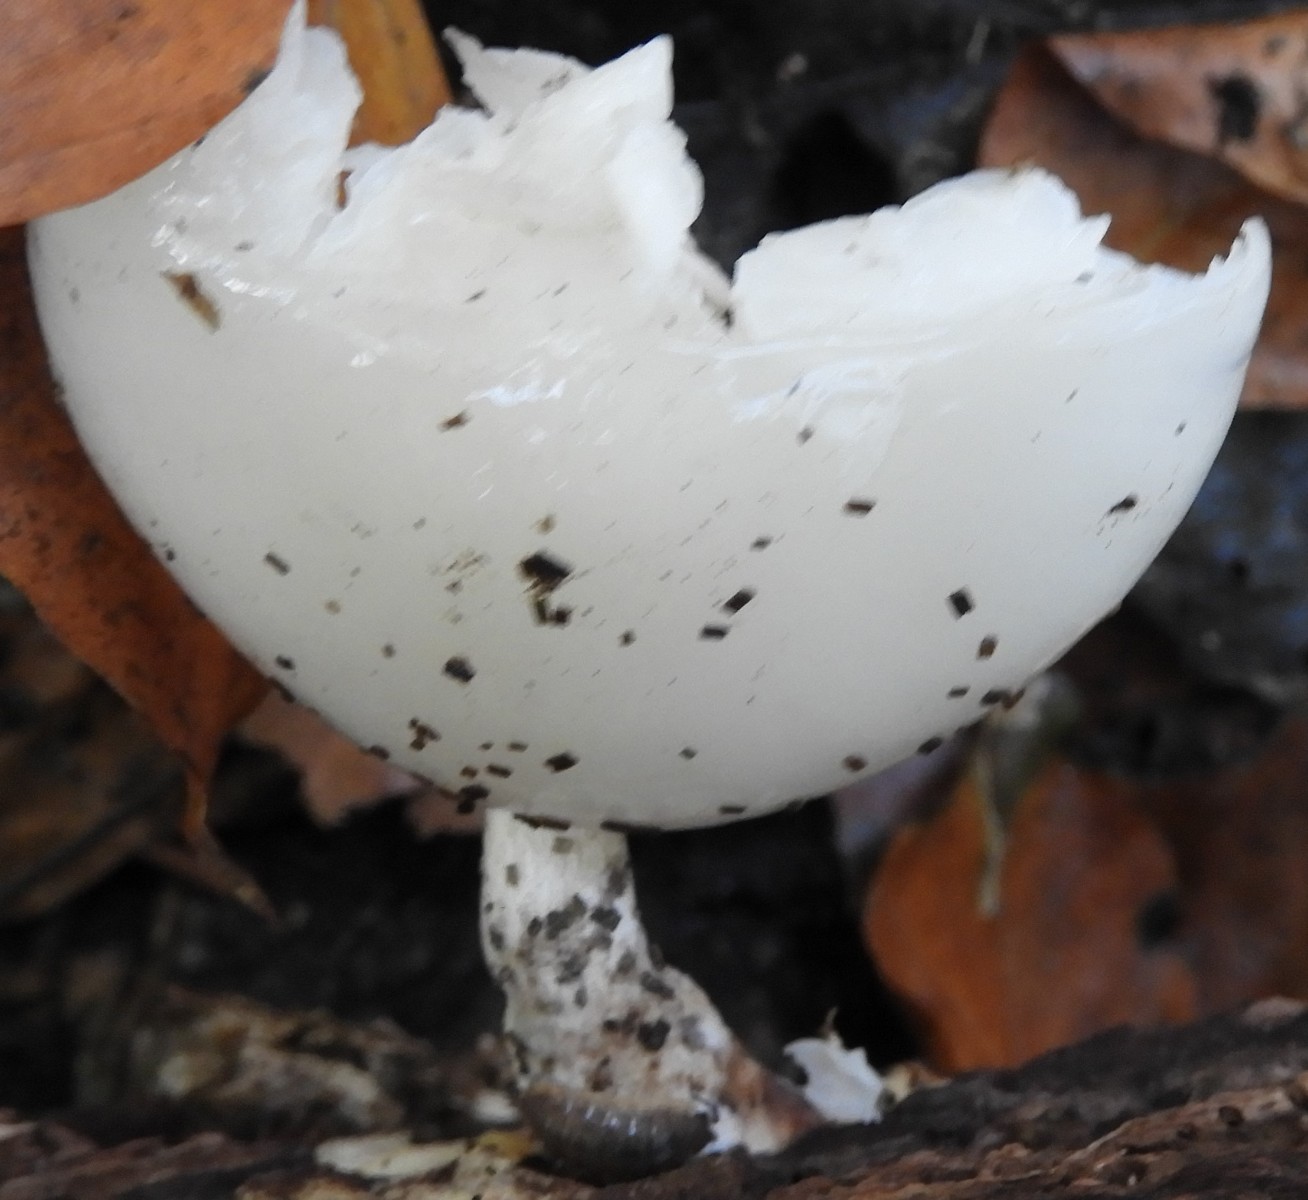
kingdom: Fungi
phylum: Basidiomycota
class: Agaricomycetes
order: Agaricales
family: Physalacriaceae
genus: Mucidula
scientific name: Mucidula mucida
